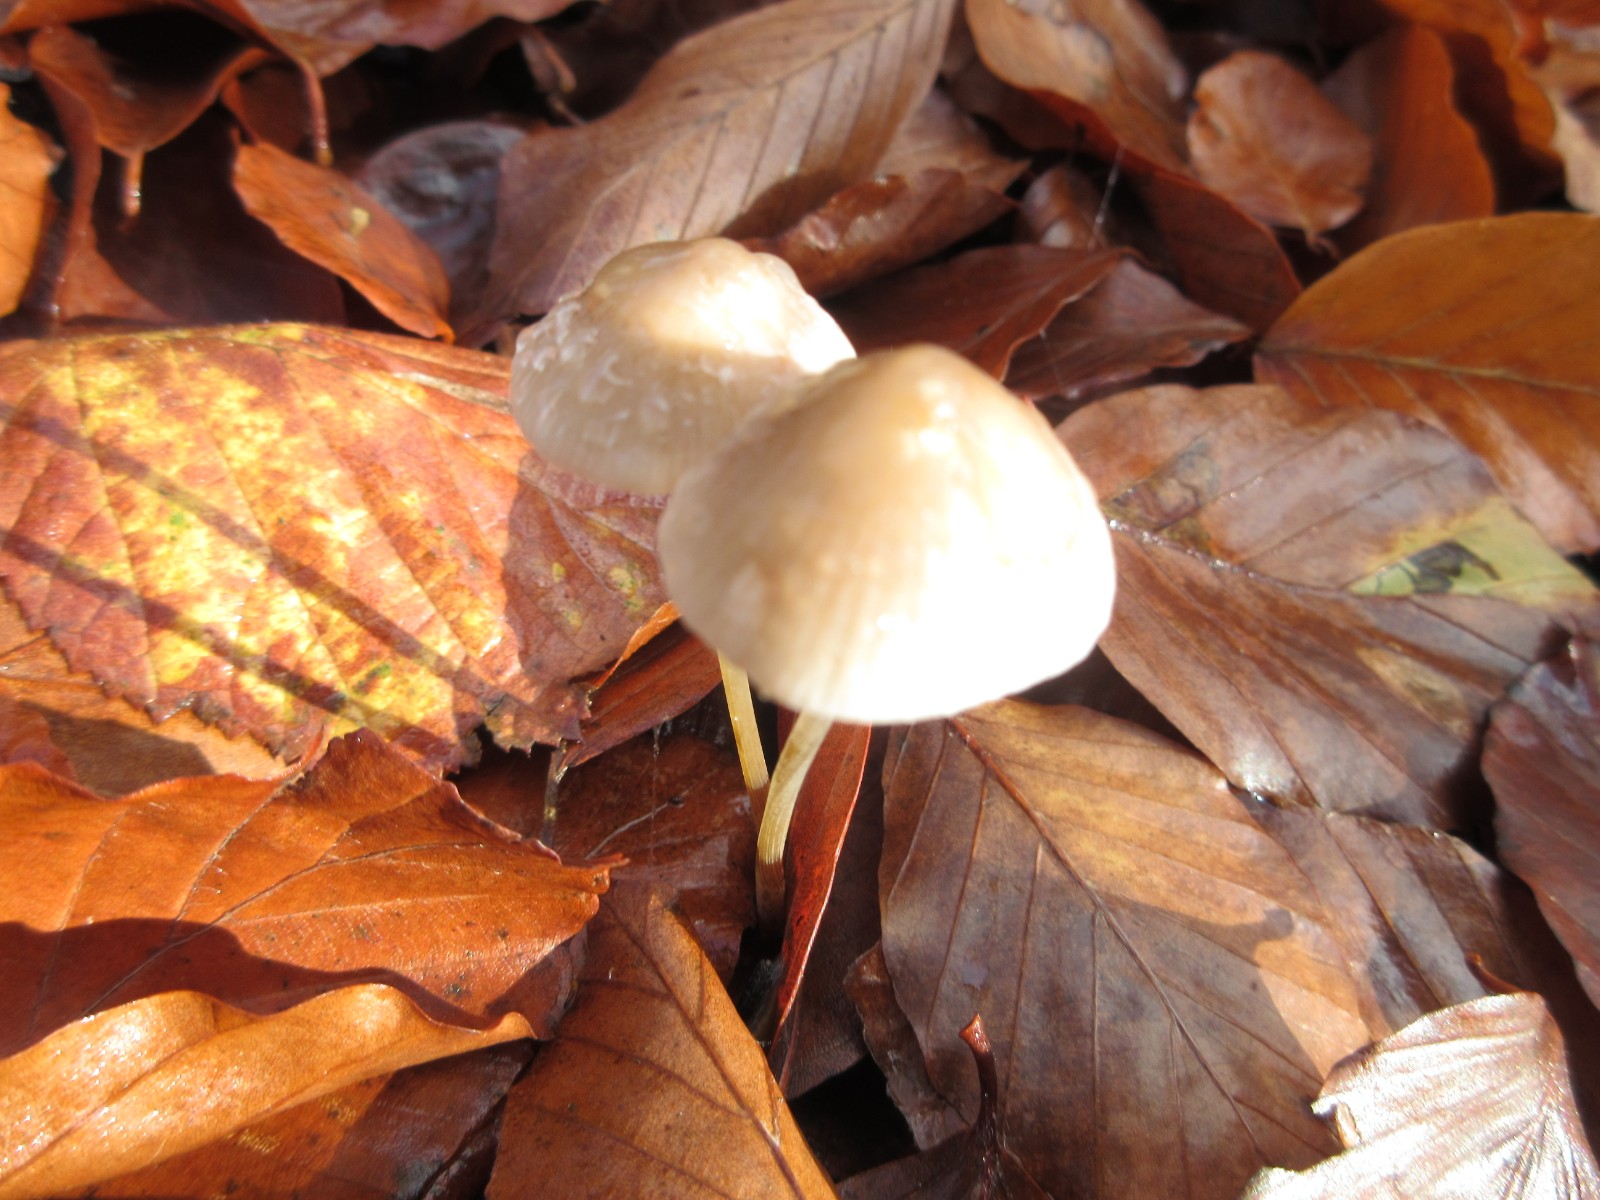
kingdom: Fungi
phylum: Basidiomycota
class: Agaricomycetes
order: Agaricales
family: Mycenaceae
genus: Mycena
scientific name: Mycena crocata
